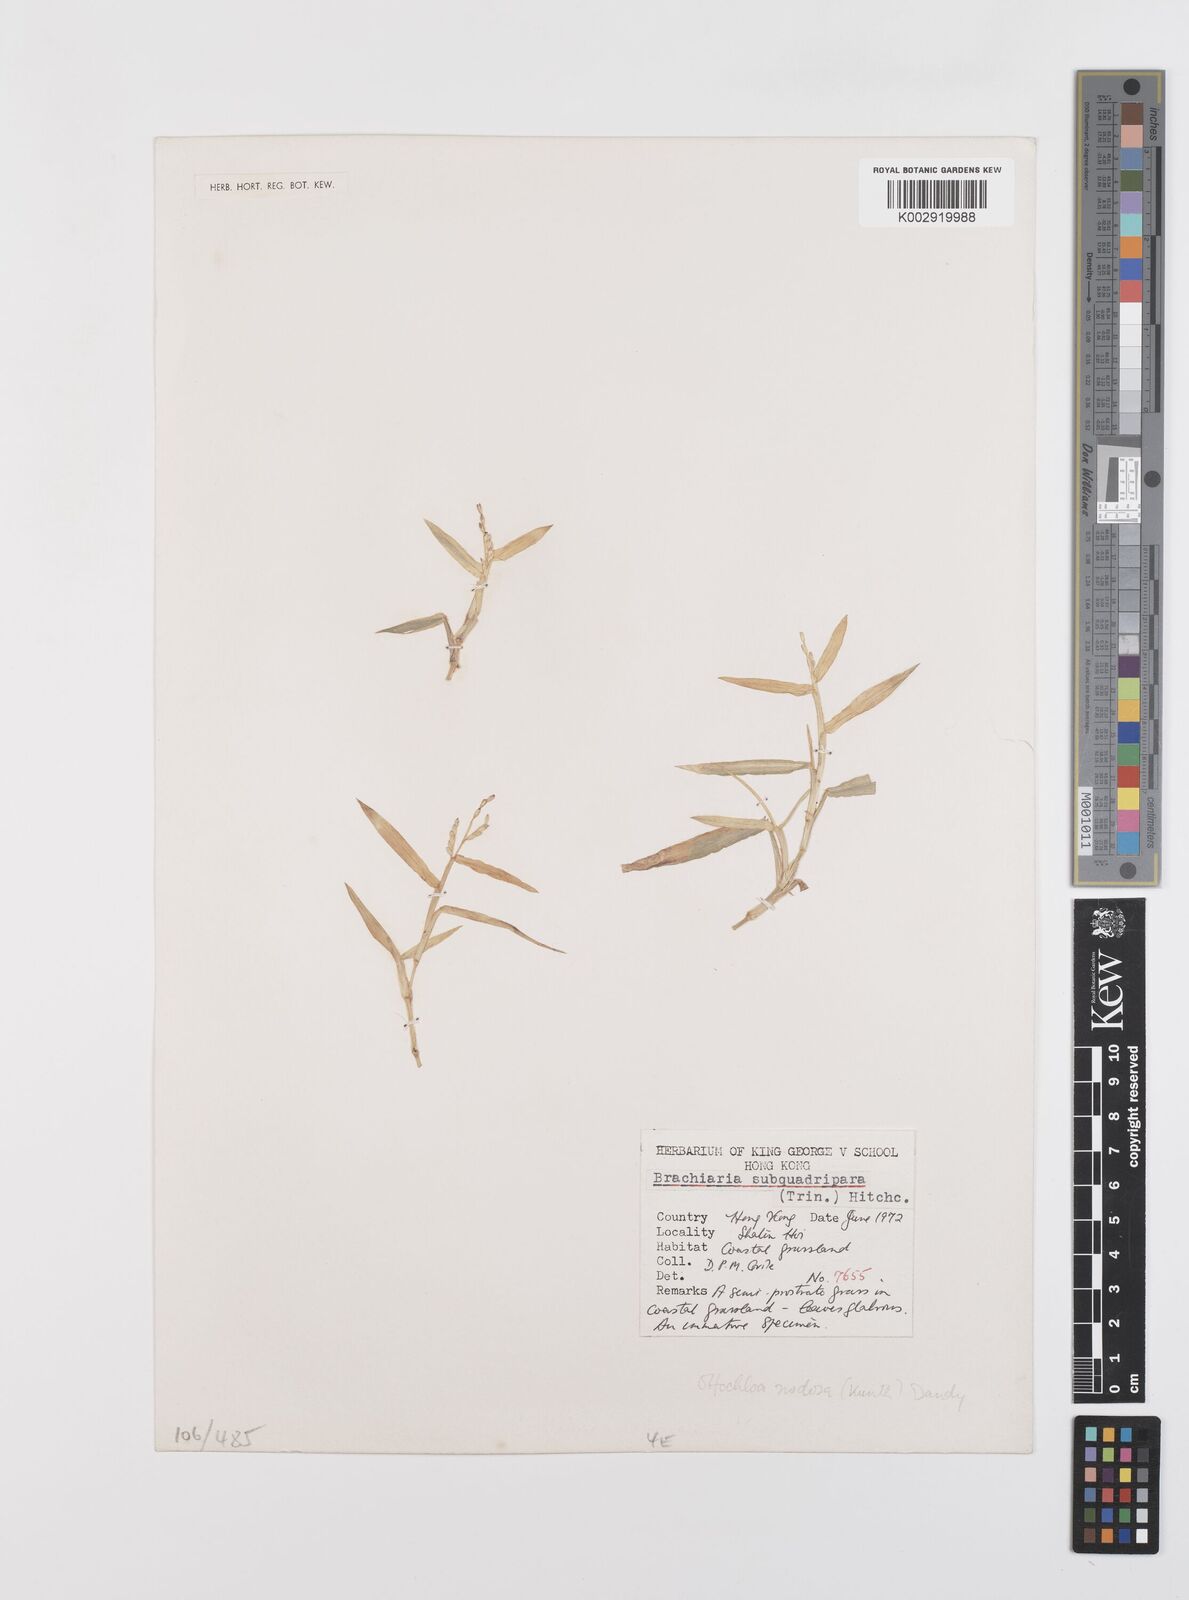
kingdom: Plantae
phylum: Tracheophyta
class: Liliopsida
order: Poales
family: Poaceae
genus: Urochloa
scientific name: Urochloa subquadripara
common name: Armgrass millet
